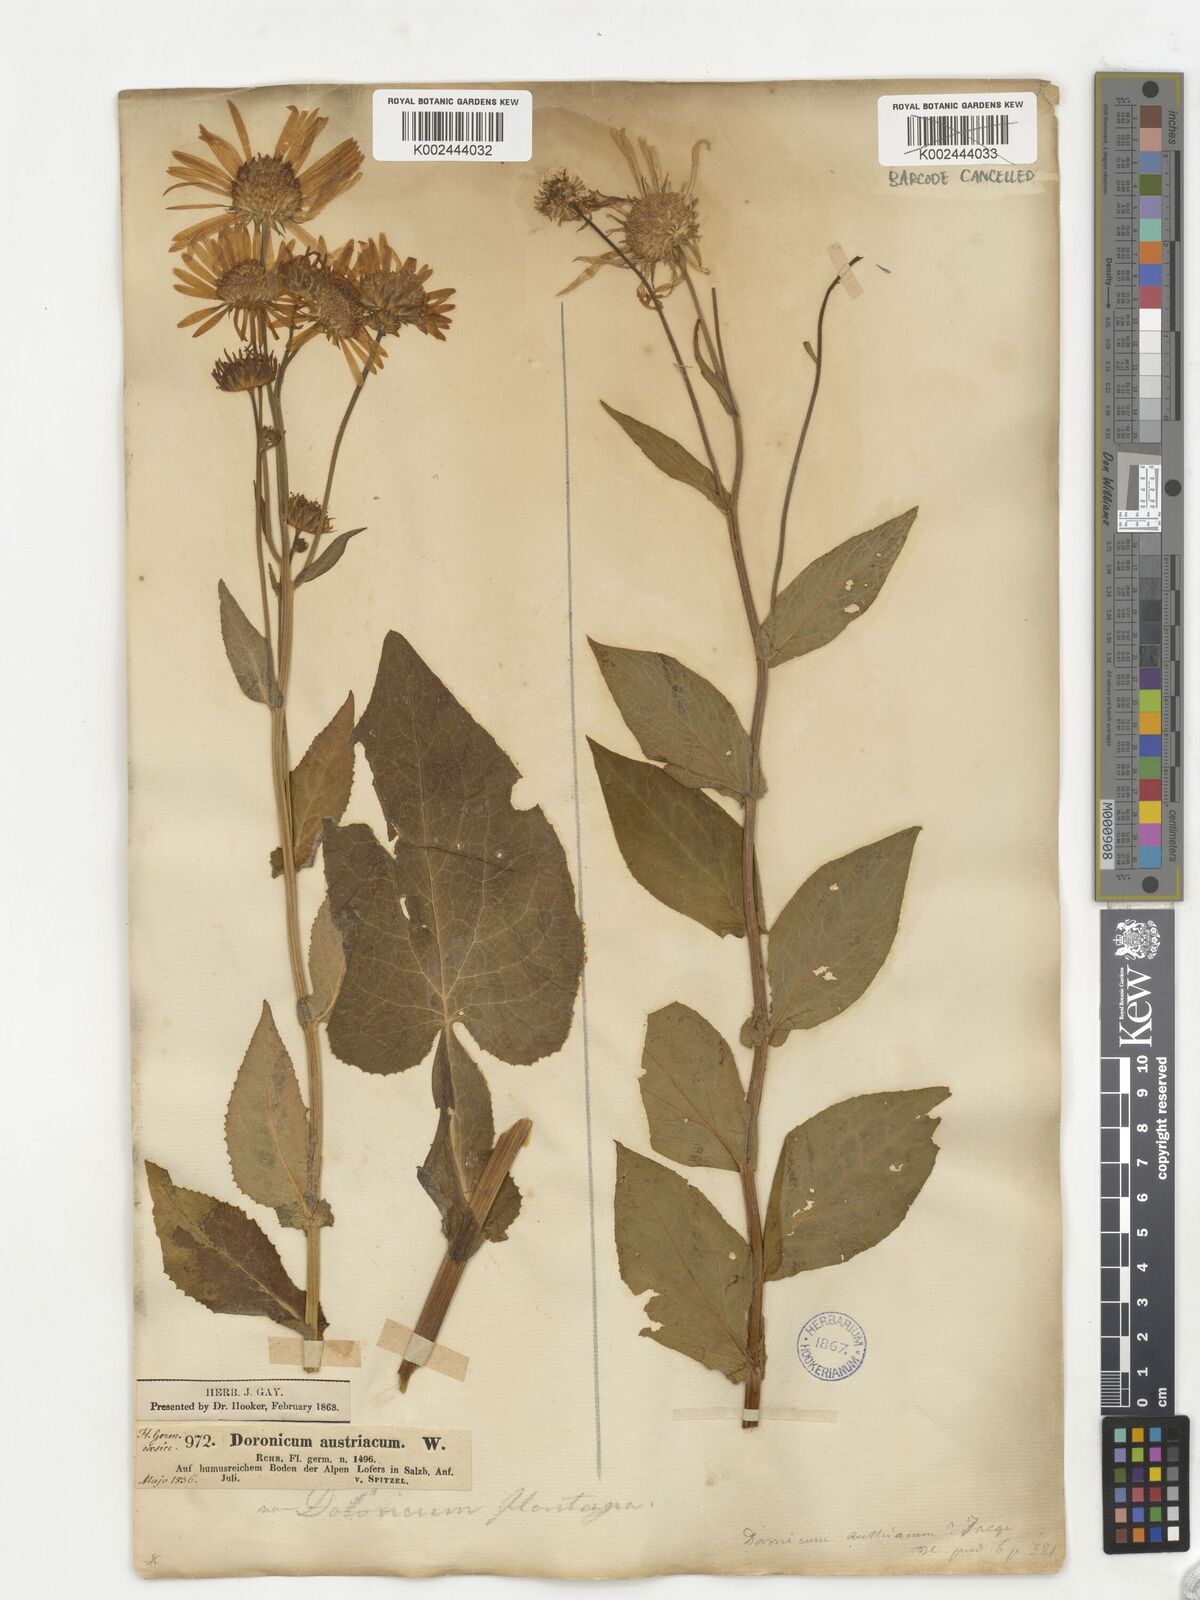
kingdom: Plantae
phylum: Tracheophyta
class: Magnoliopsida
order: Asterales
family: Asteraceae
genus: Doronicum
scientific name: Doronicum austriacum
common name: Austrian leopard's-bane
